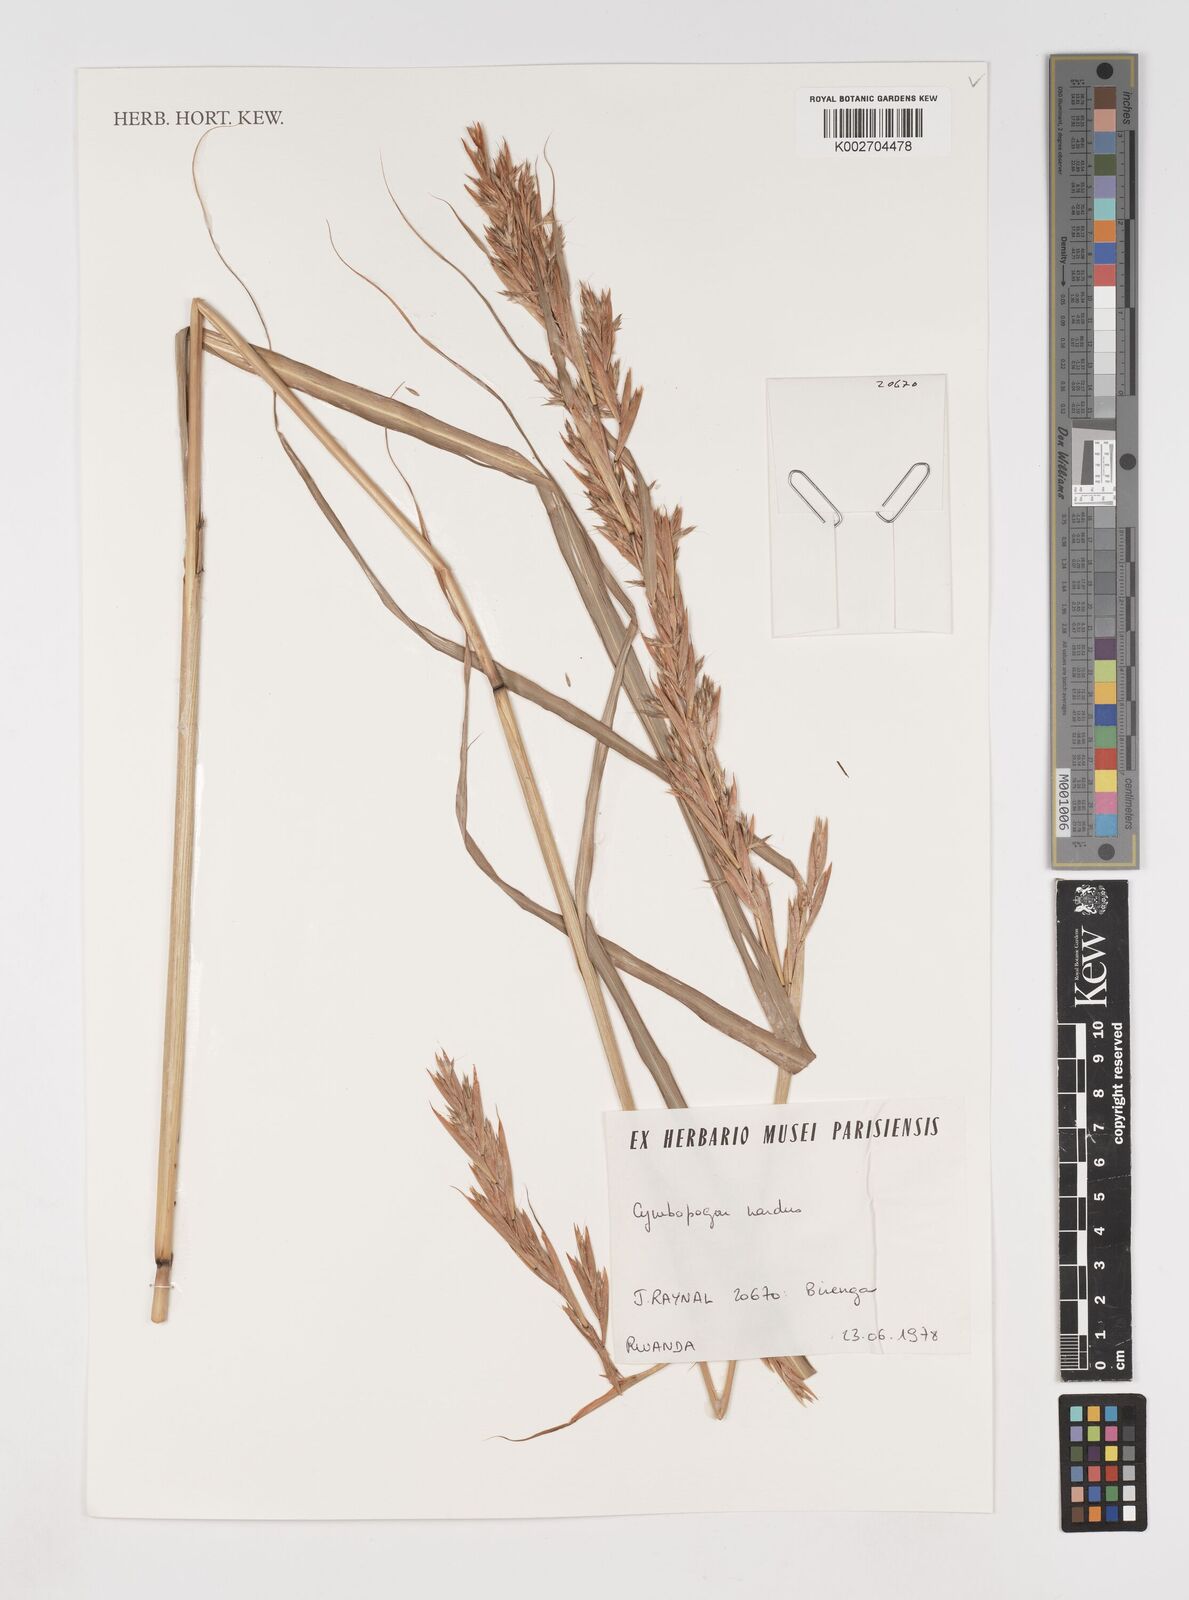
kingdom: Plantae
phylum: Tracheophyta
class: Liliopsida
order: Poales
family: Poaceae
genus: Cymbopogon
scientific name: Cymbopogon nardus
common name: Giant turpentine grass
